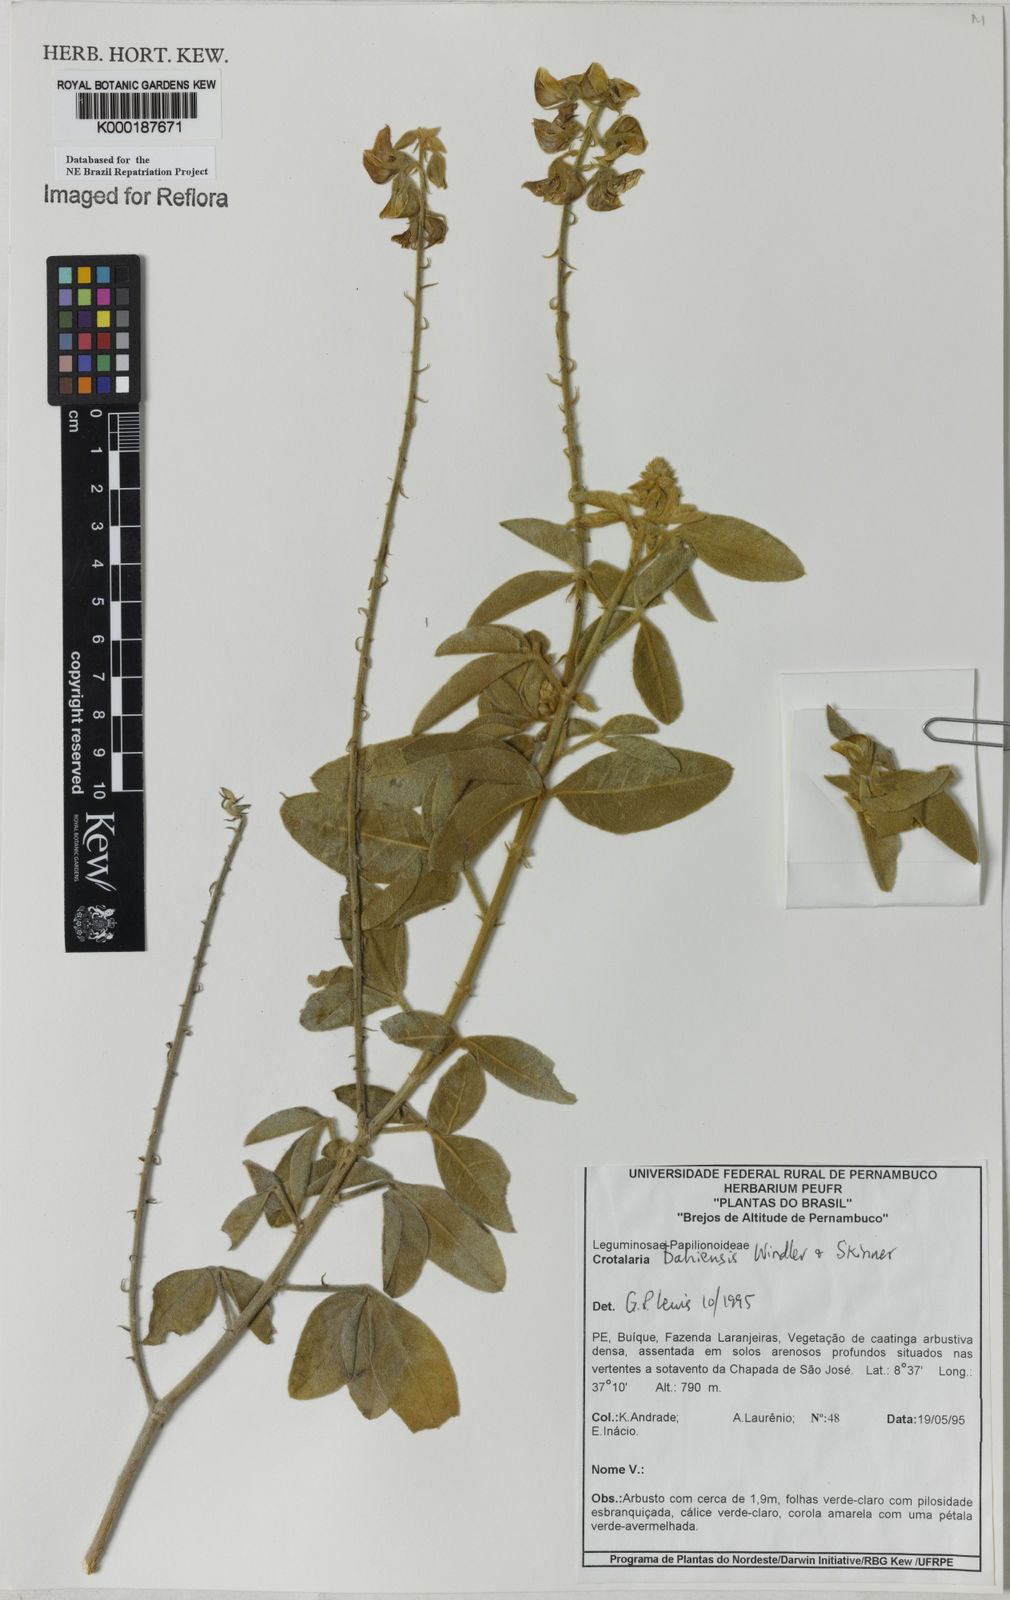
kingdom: Plantae
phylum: Tracheophyta
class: Magnoliopsida
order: Fabales
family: Fabaceae
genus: Crotalaria
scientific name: Crotalaria
